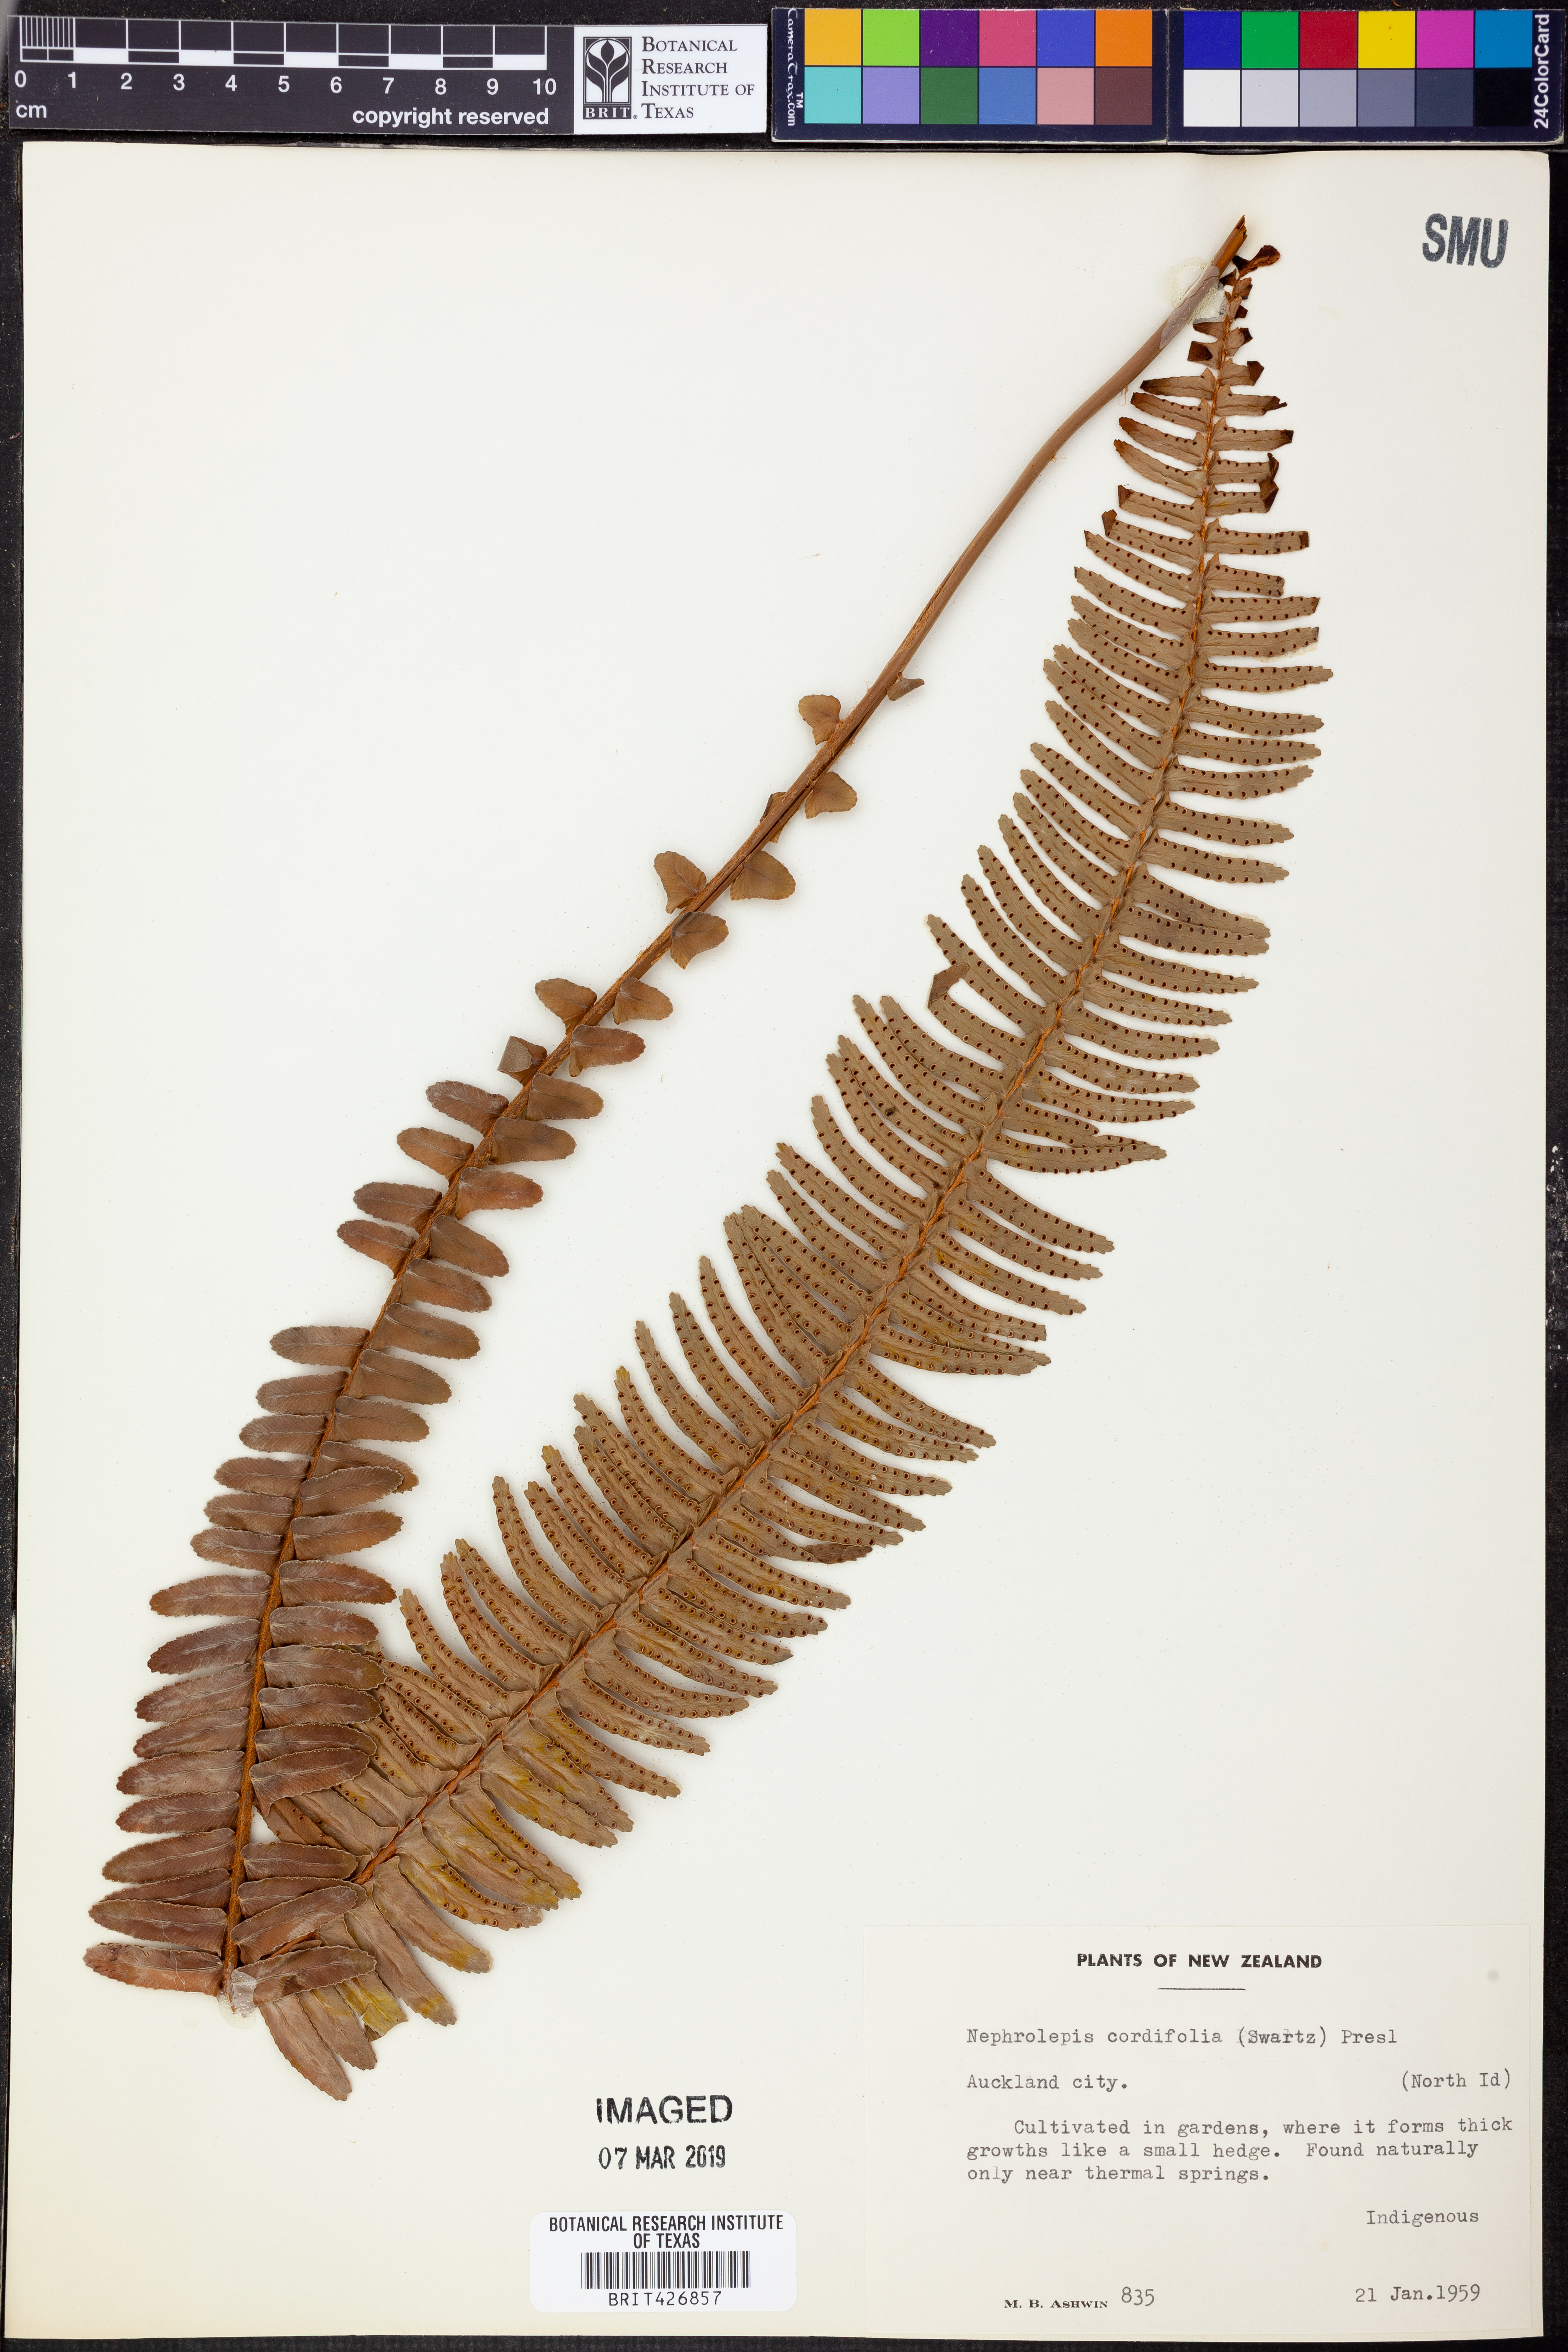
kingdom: Plantae
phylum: Tracheophyta
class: Polypodiopsida
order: Polypodiales
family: Nephrolepidaceae
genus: Nephrolepis
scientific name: Nephrolepis cordifolia
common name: Narrow swordfern
